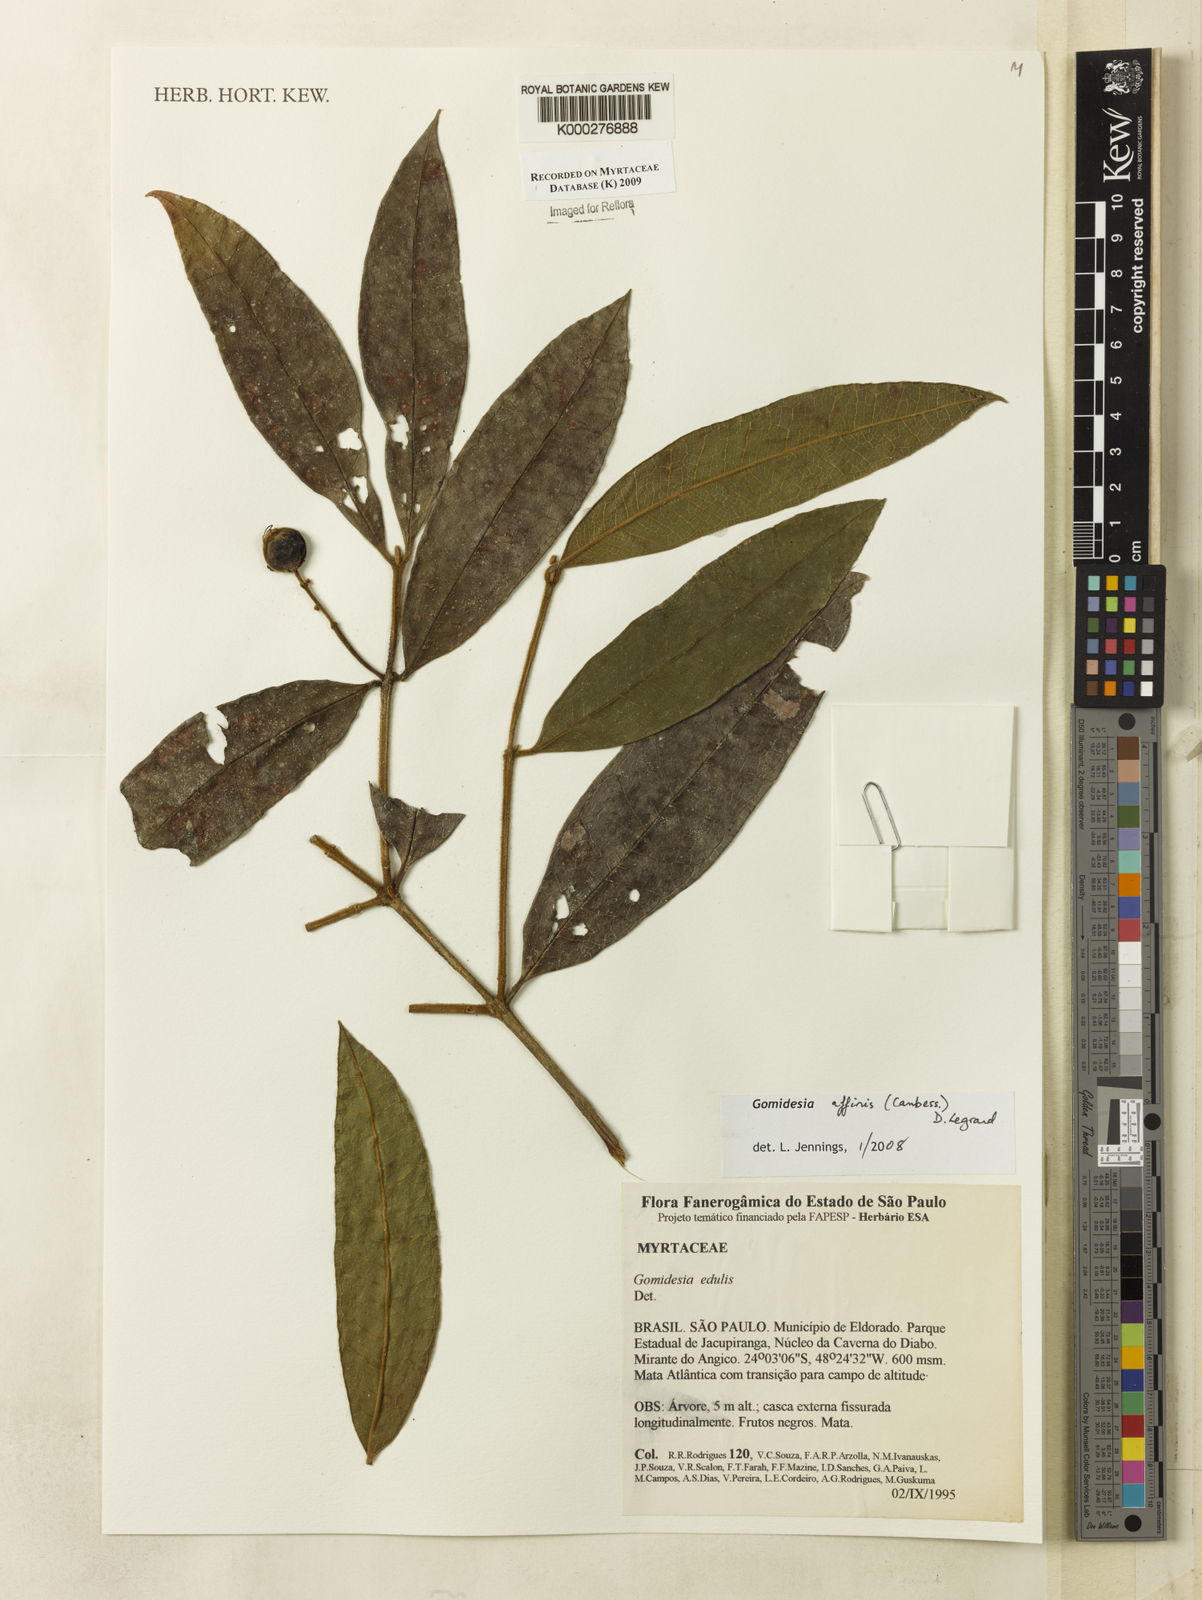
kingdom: Plantae
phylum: Tracheophyta
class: Magnoliopsida
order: Myrtales
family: Myrtaceae
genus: Myrcia
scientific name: Myrcia hebepetala
